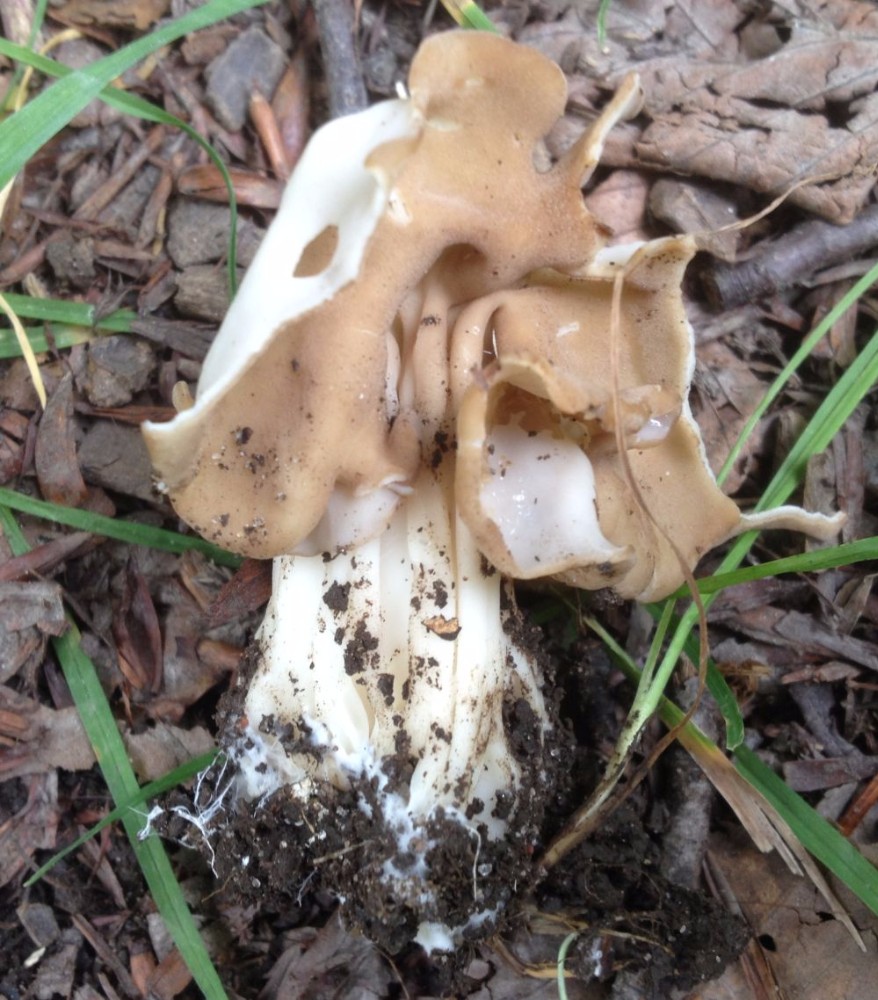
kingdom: Fungi
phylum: Ascomycota
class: Pezizomycetes
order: Pezizales
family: Helvellaceae
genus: Helvella
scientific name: Helvella crispa
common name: kruset foldhat
